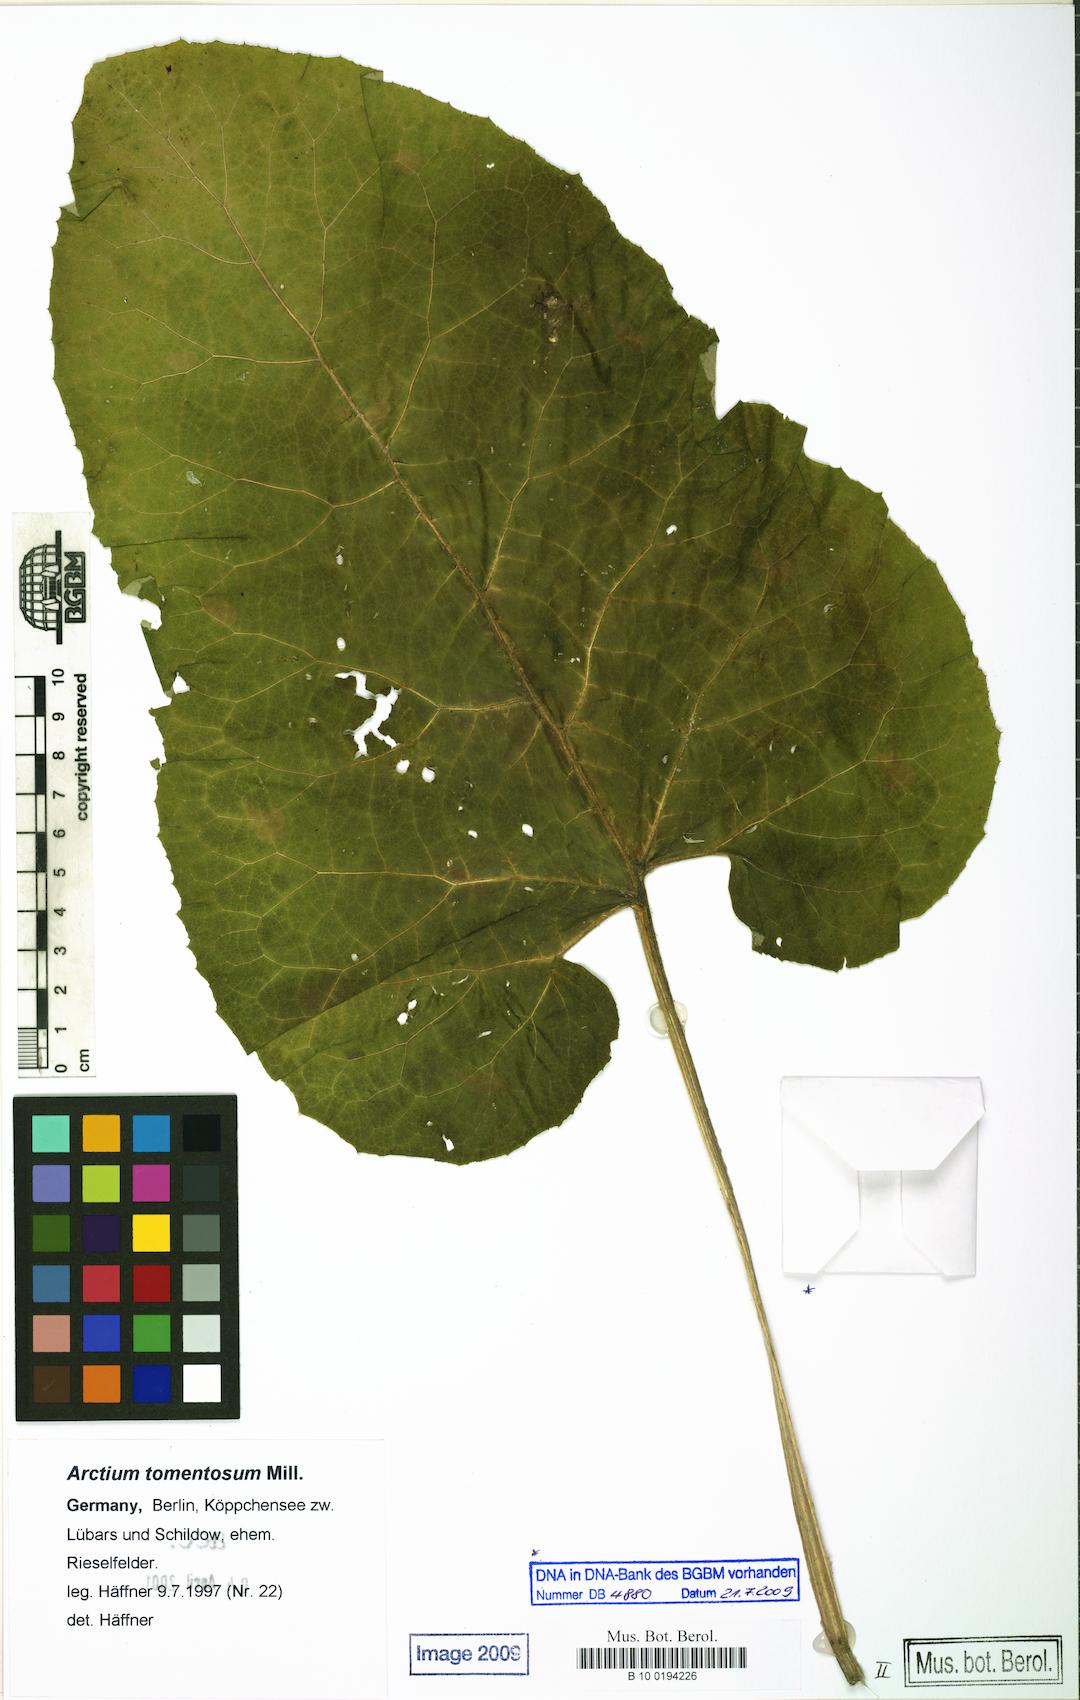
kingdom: Plantae
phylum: Tracheophyta
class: Magnoliopsida
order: Asterales
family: Asteraceae
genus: Arctium
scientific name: Arctium tomentosum
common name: Woolly burdock
